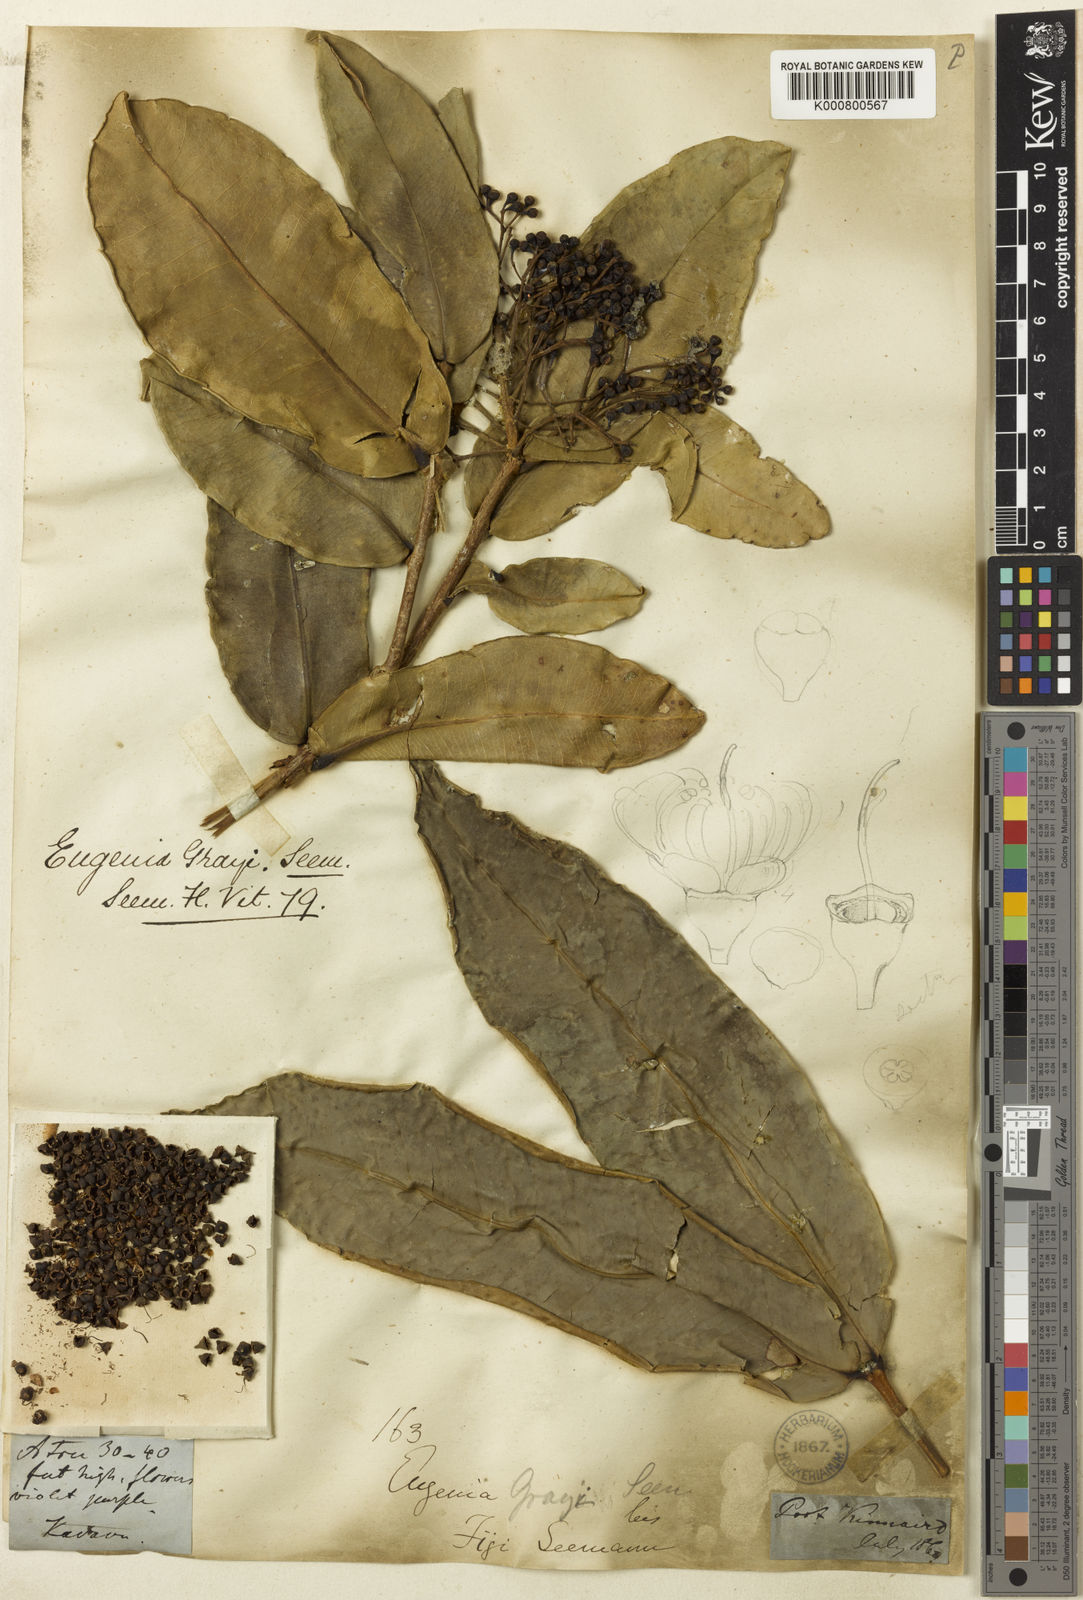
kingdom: Plantae
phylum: Tracheophyta
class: Magnoliopsida
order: Myrtales
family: Myrtaceae
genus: Syzygium
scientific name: Syzygium grayi
